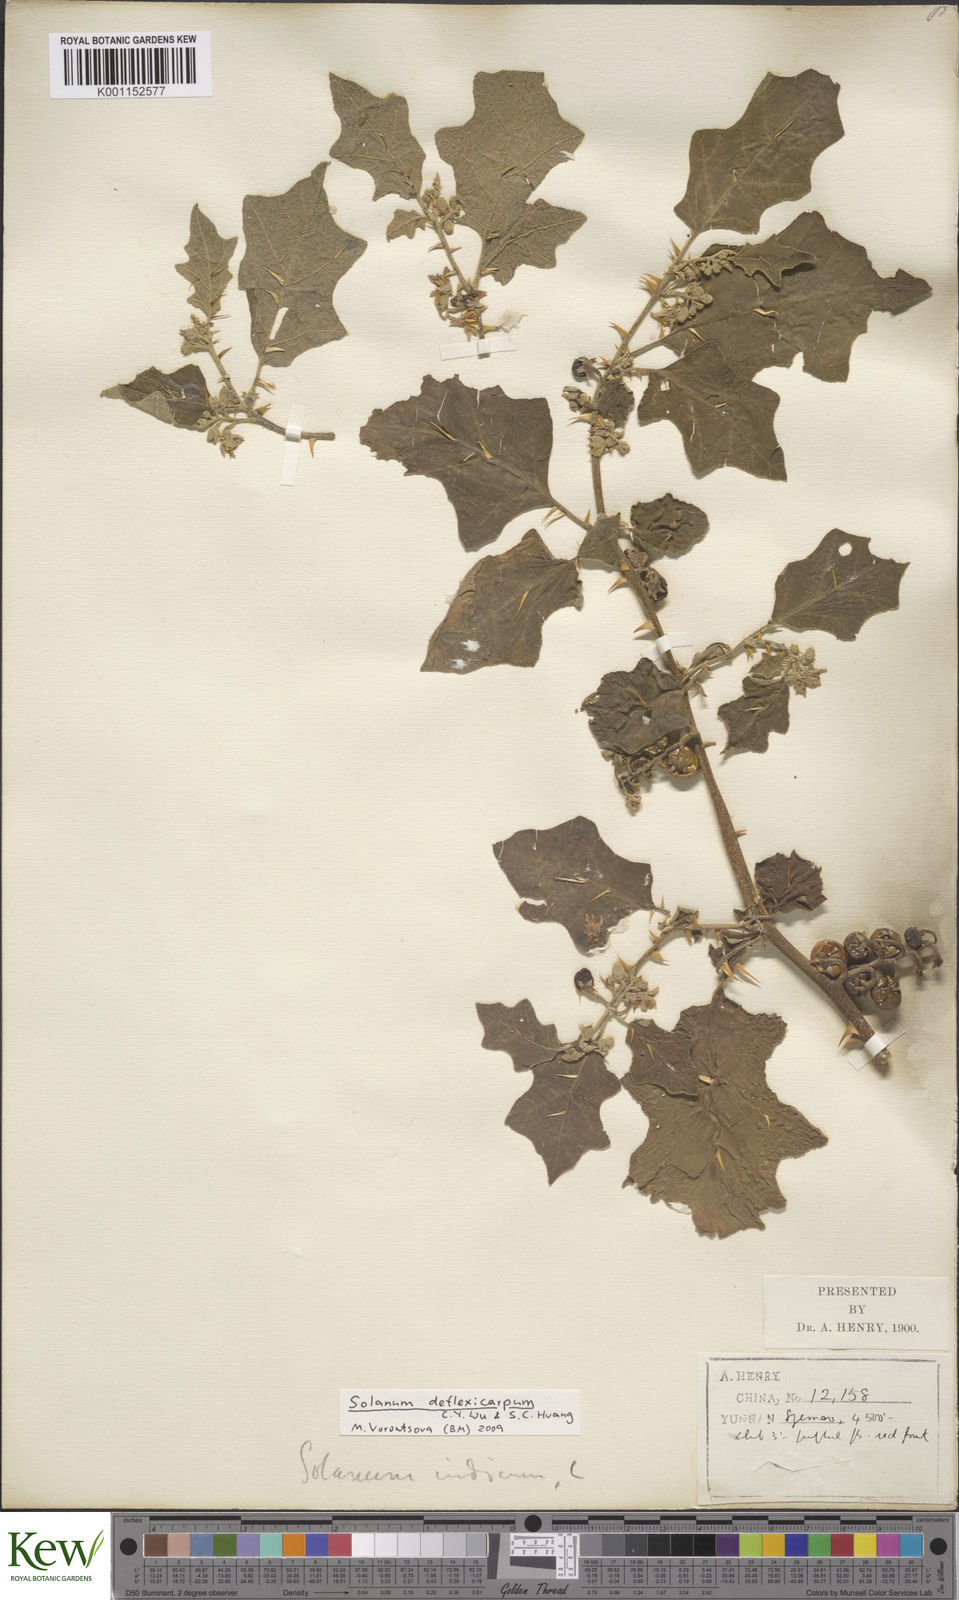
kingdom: Plantae
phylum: Tracheophyta
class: Magnoliopsida
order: Solanales
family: Solanaceae
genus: Solanum
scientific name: Solanum violaceum
